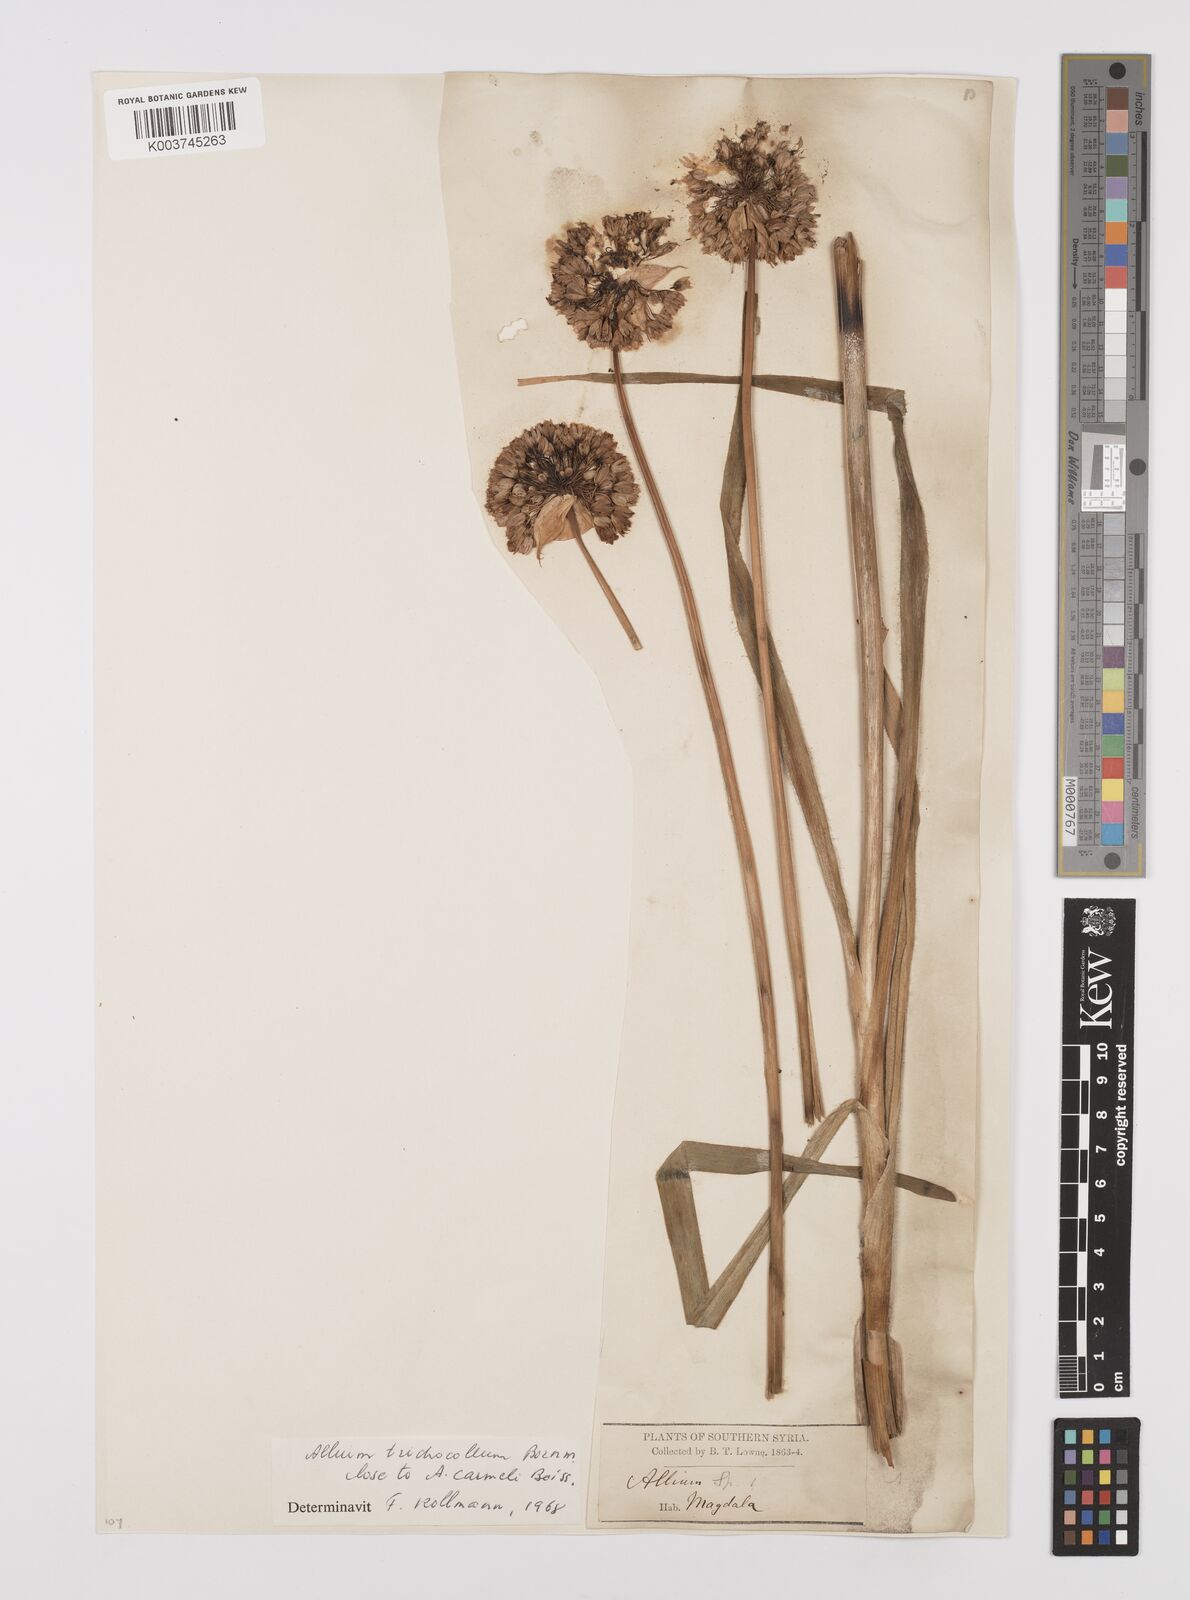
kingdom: Plantae
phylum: Tracheophyta
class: Liliopsida
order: Asparagales
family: Amaryllidaceae
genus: Allium
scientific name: Allium carmeli
